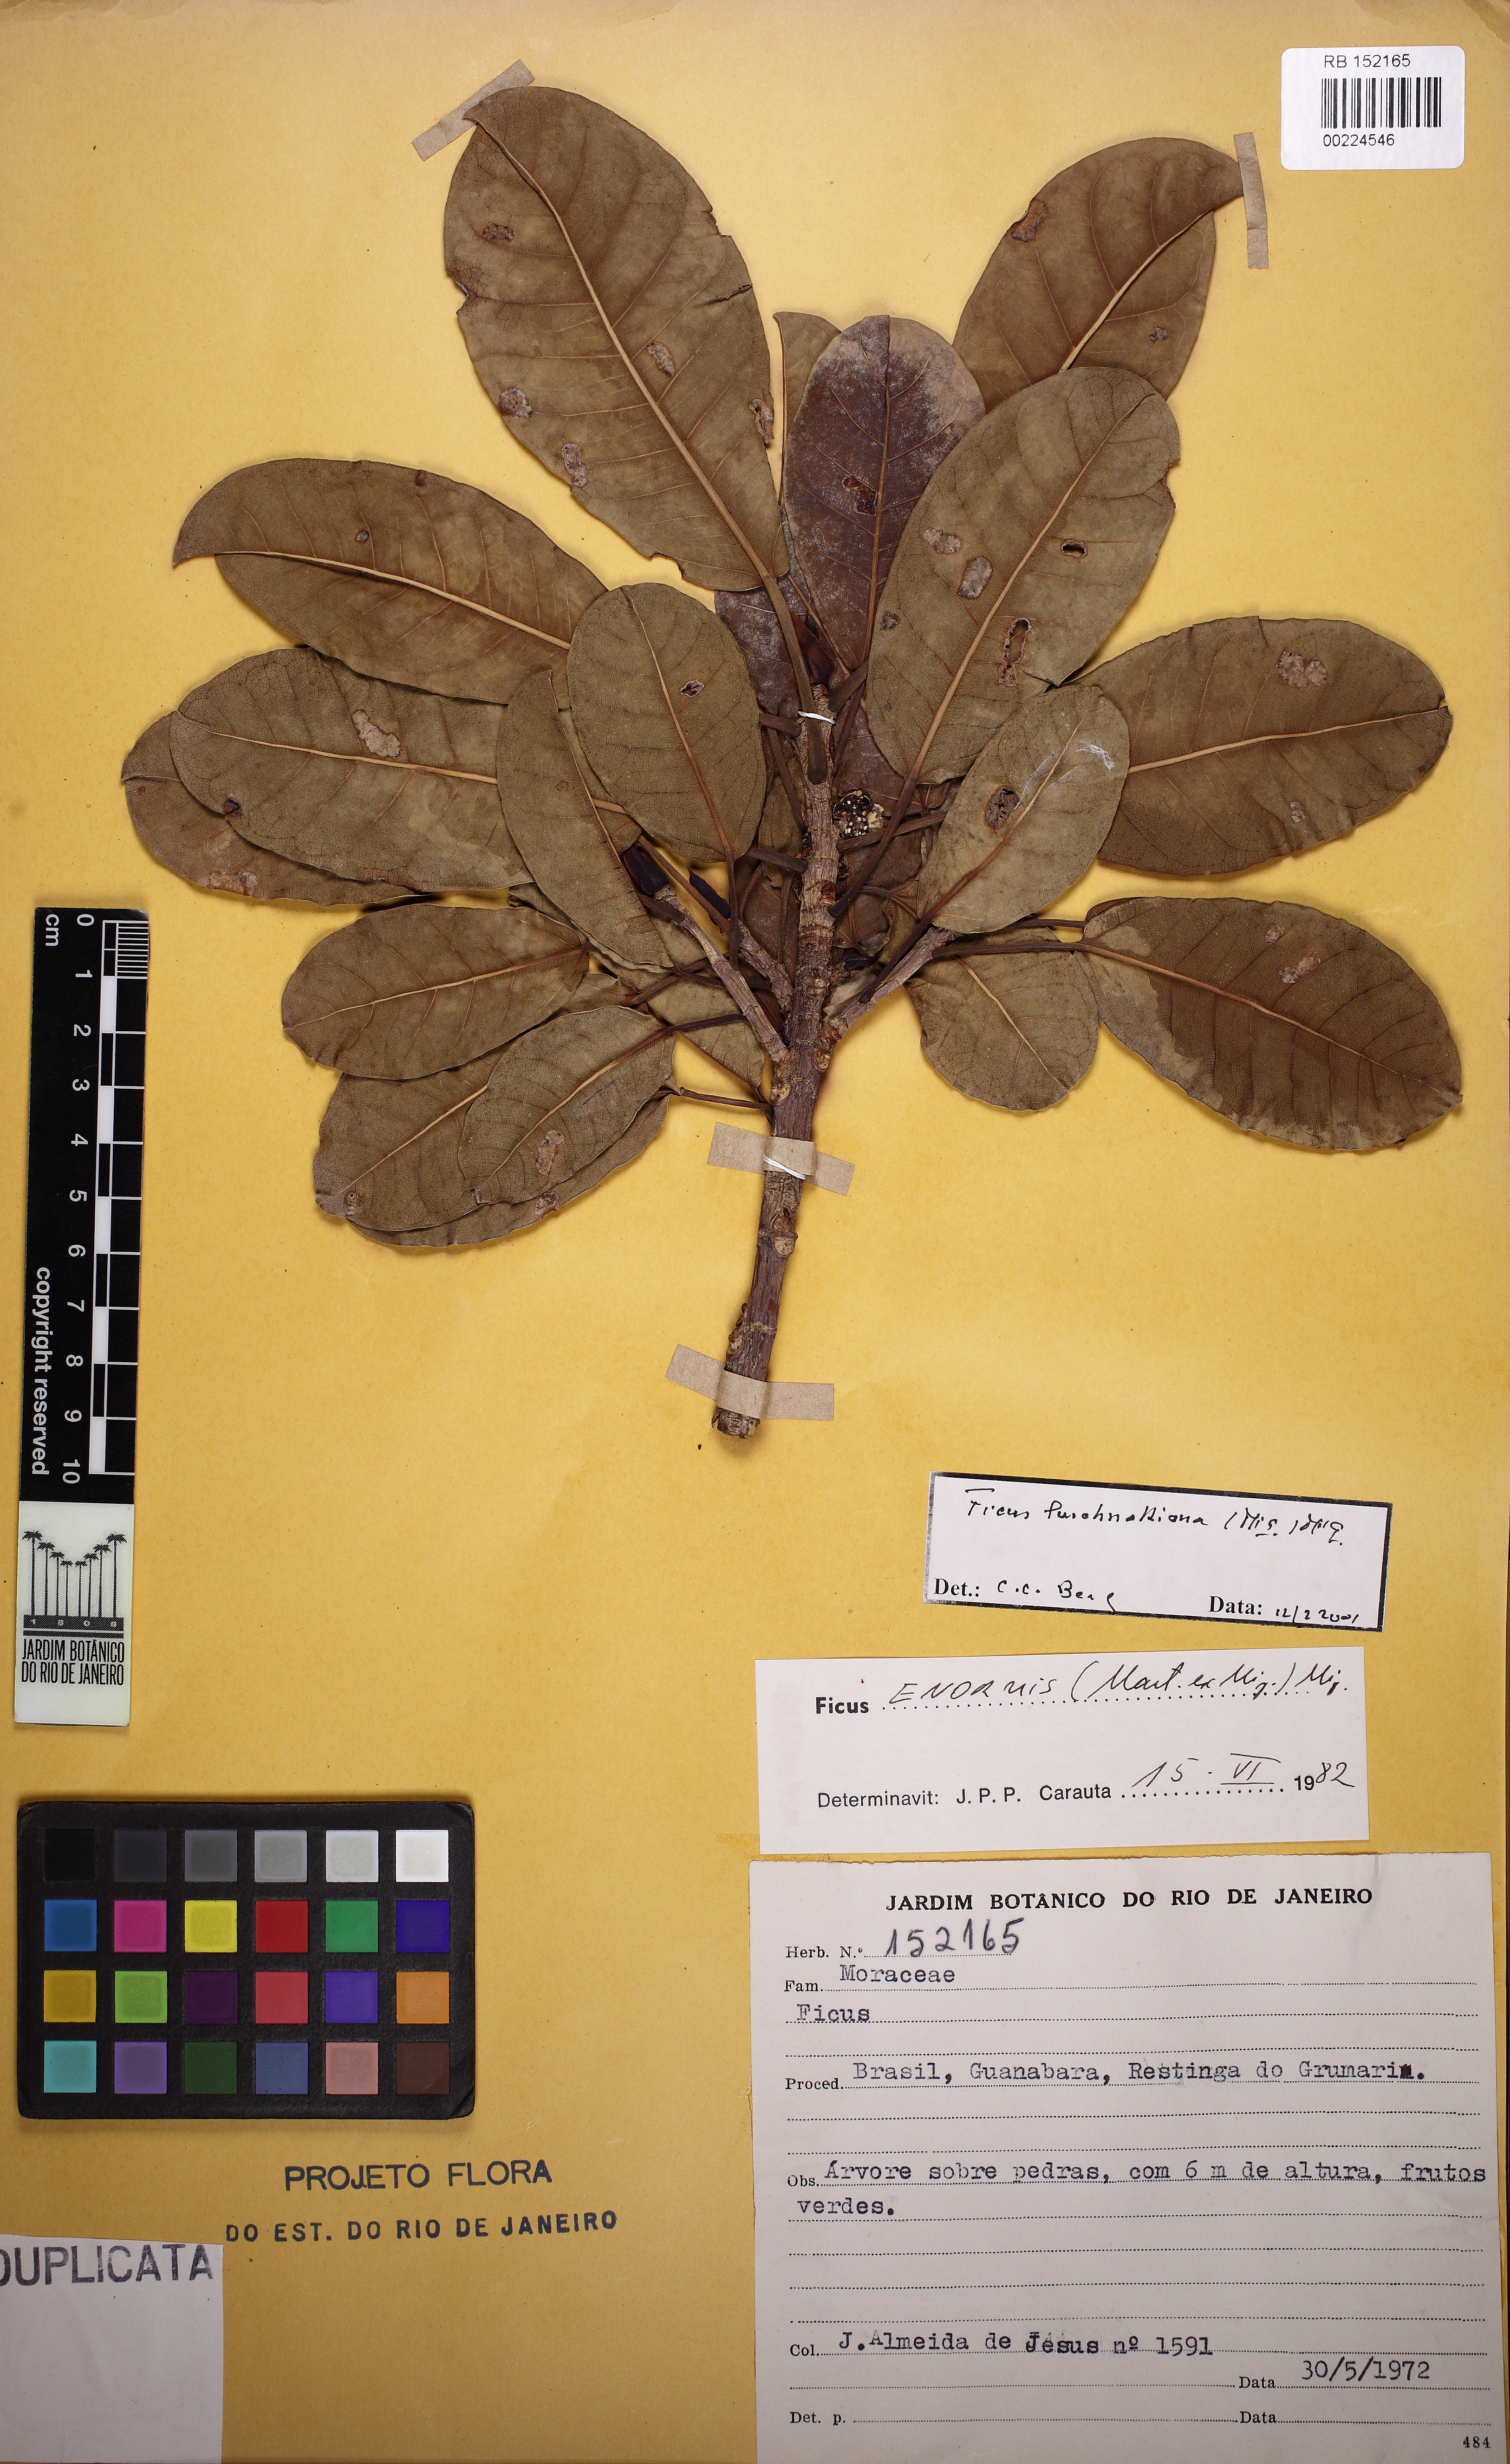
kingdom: Plantae
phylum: Tracheophyta
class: Magnoliopsida
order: Rosales
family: Moraceae
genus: Ficus
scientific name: Ficus luschnathiana
